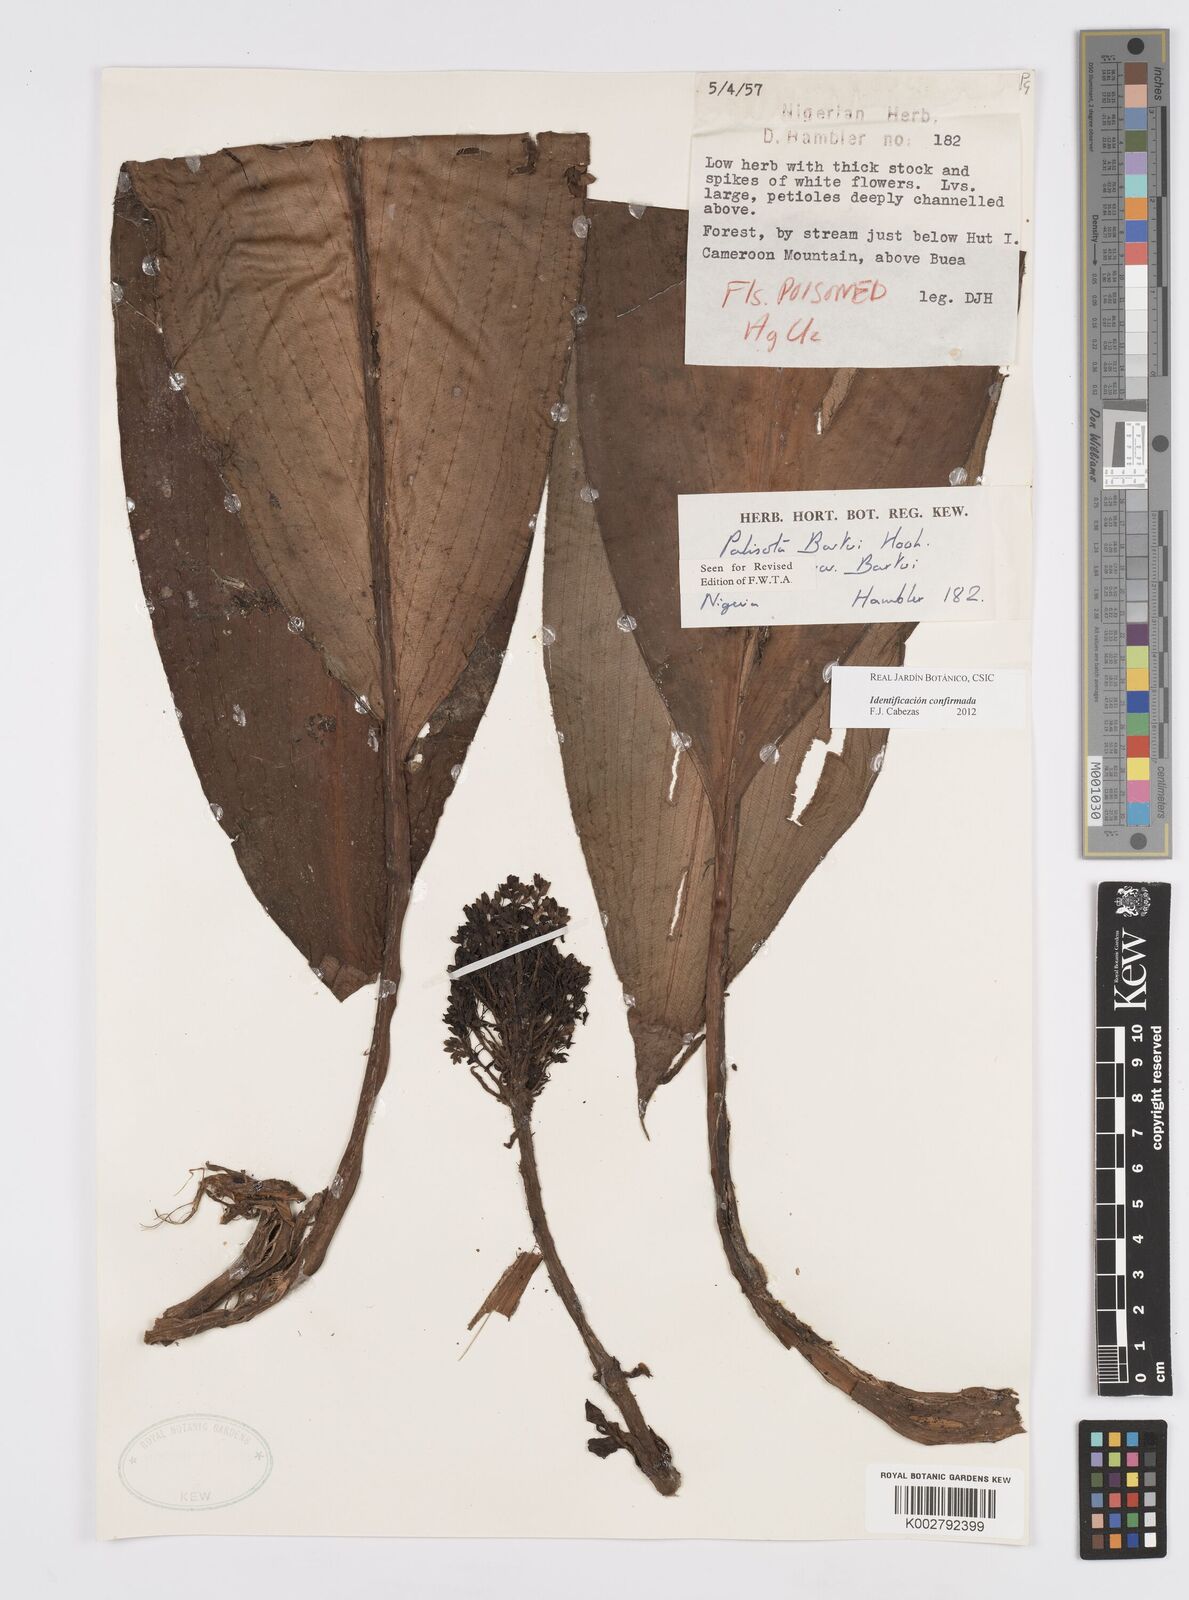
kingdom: Plantae
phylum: Tracheophyta
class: Liliopsida
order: Commelinales
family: Commelinaceae
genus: Palisota
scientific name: Palisota barteri
